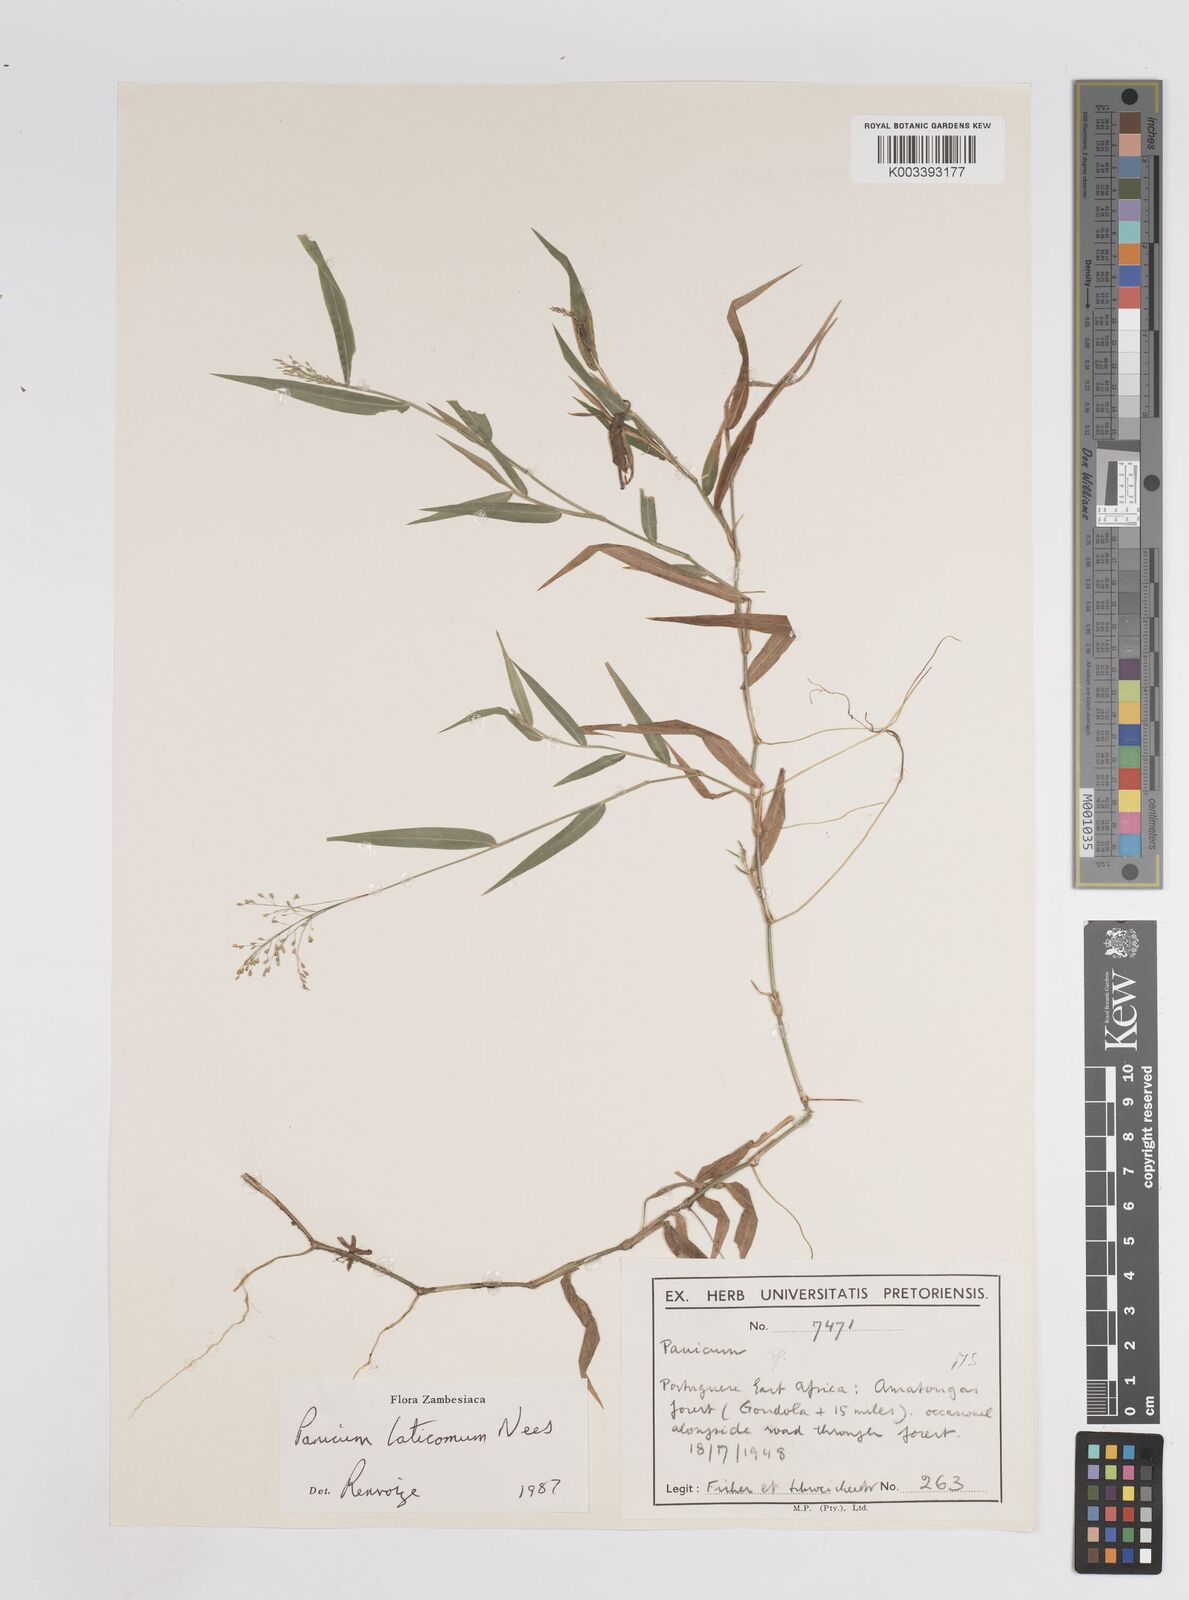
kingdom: Plantae
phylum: Tracheophyta
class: Liliopsida
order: Poales
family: Poaceae
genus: Panicum
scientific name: Panicum laticomum
